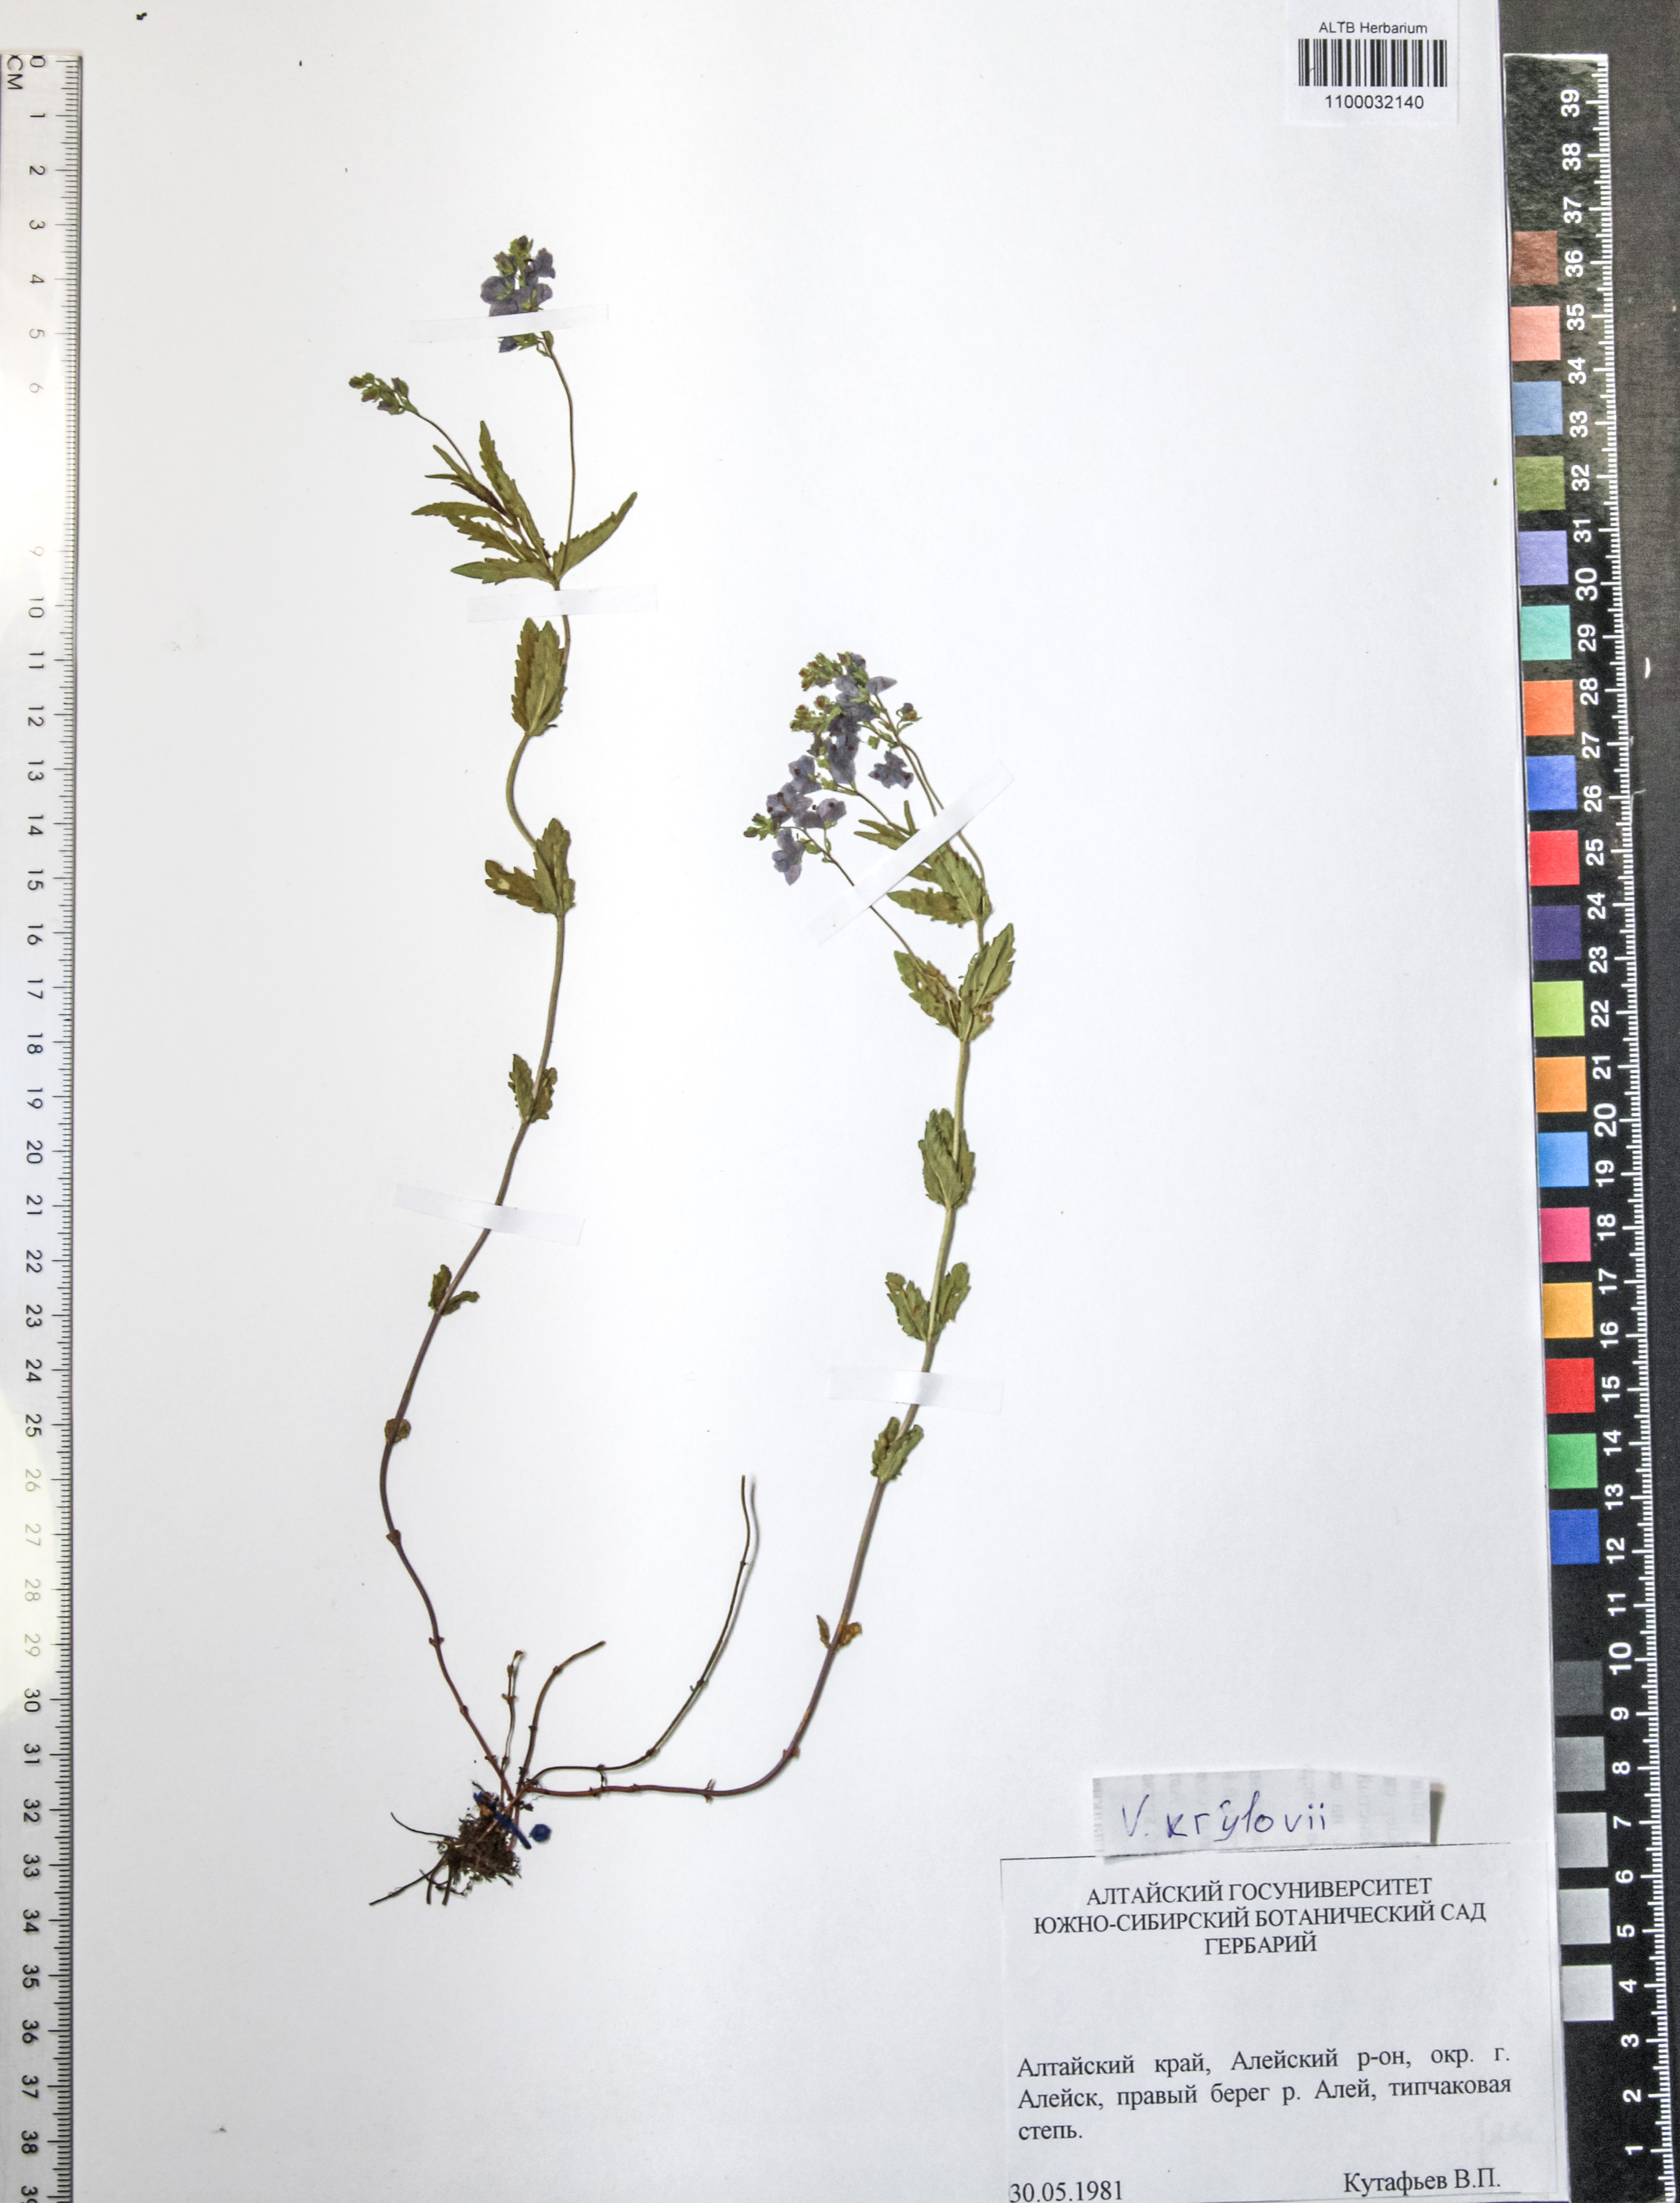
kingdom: Plantae
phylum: Tracheophyta
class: Magnoliopsida
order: Lamiales
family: Plantaginaceae
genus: Veronica
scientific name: Veronica krylovii
